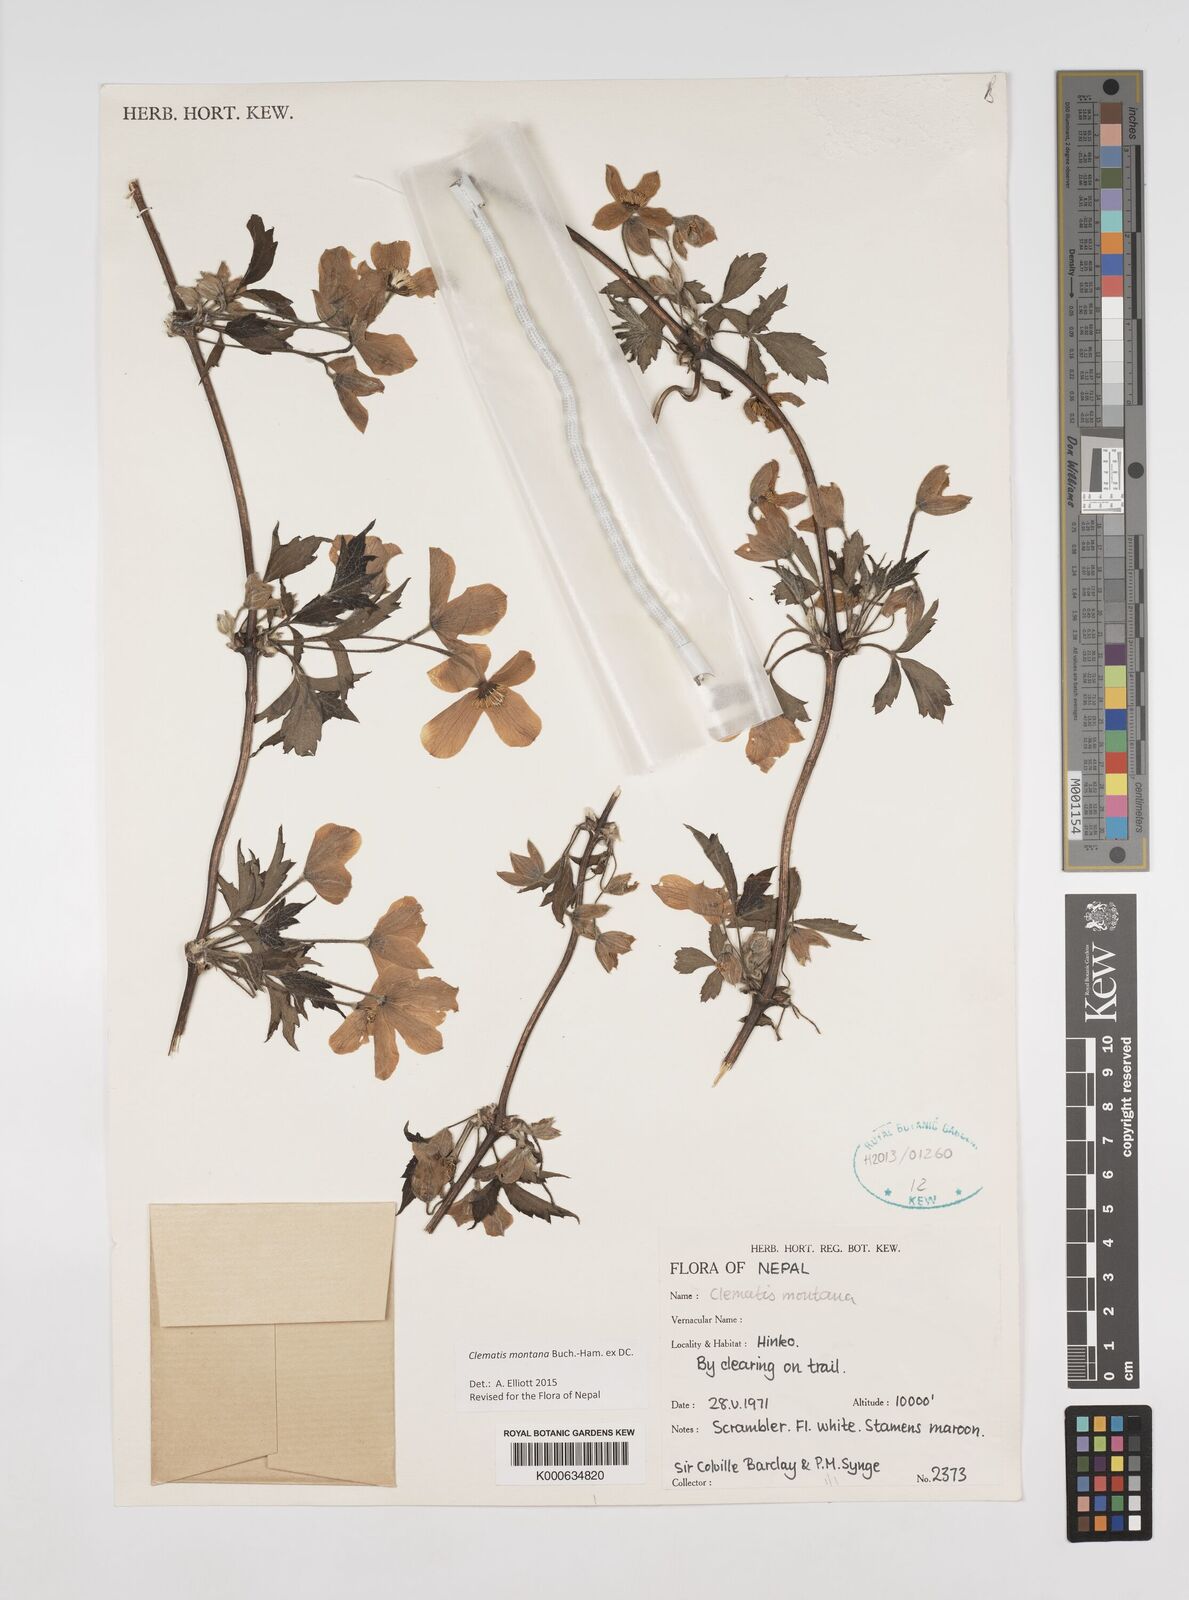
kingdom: Plantae
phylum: Tracheophyta
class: Magnoliopsida
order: Ranunculales
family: Ranunculaceae
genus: Clematis
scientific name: Clematis montana
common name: Himalayan clematis
